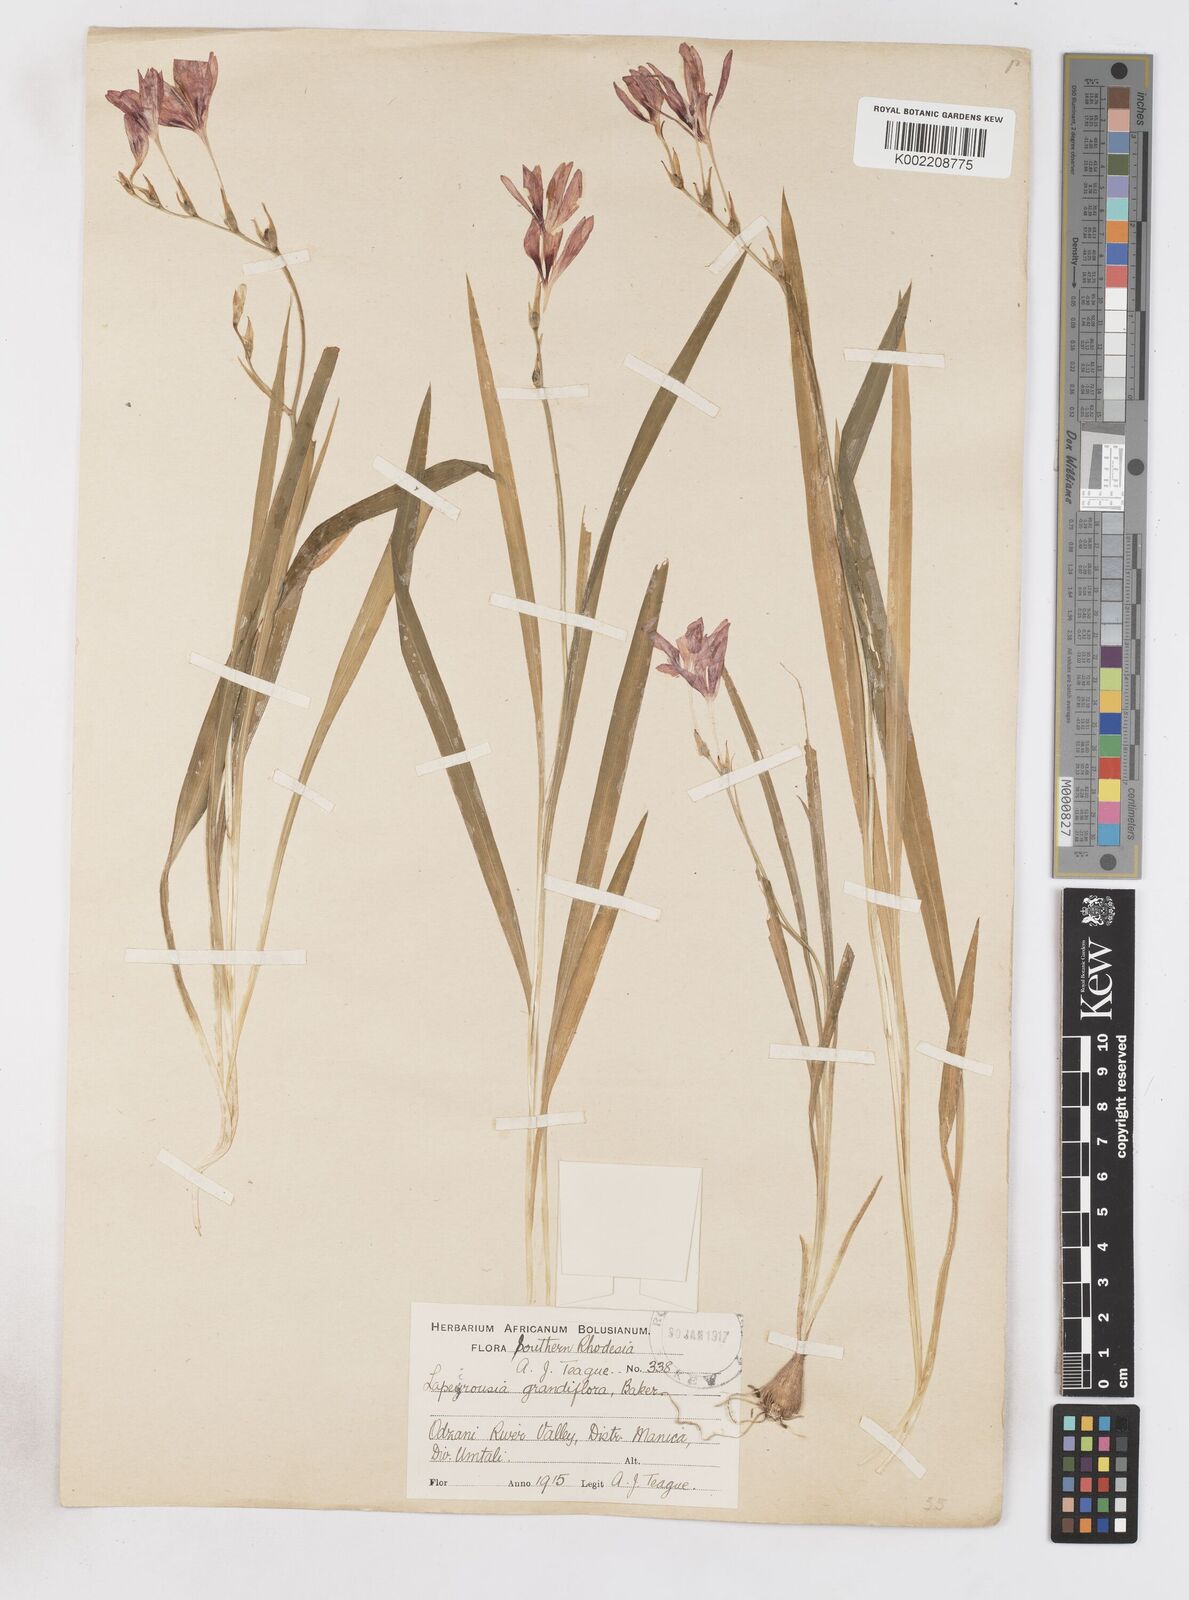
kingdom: Plantae
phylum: Tracheophyta
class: Liliopsida
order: Asparagales
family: Iridaceae
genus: Freesia
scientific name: Freesia grandiflora
